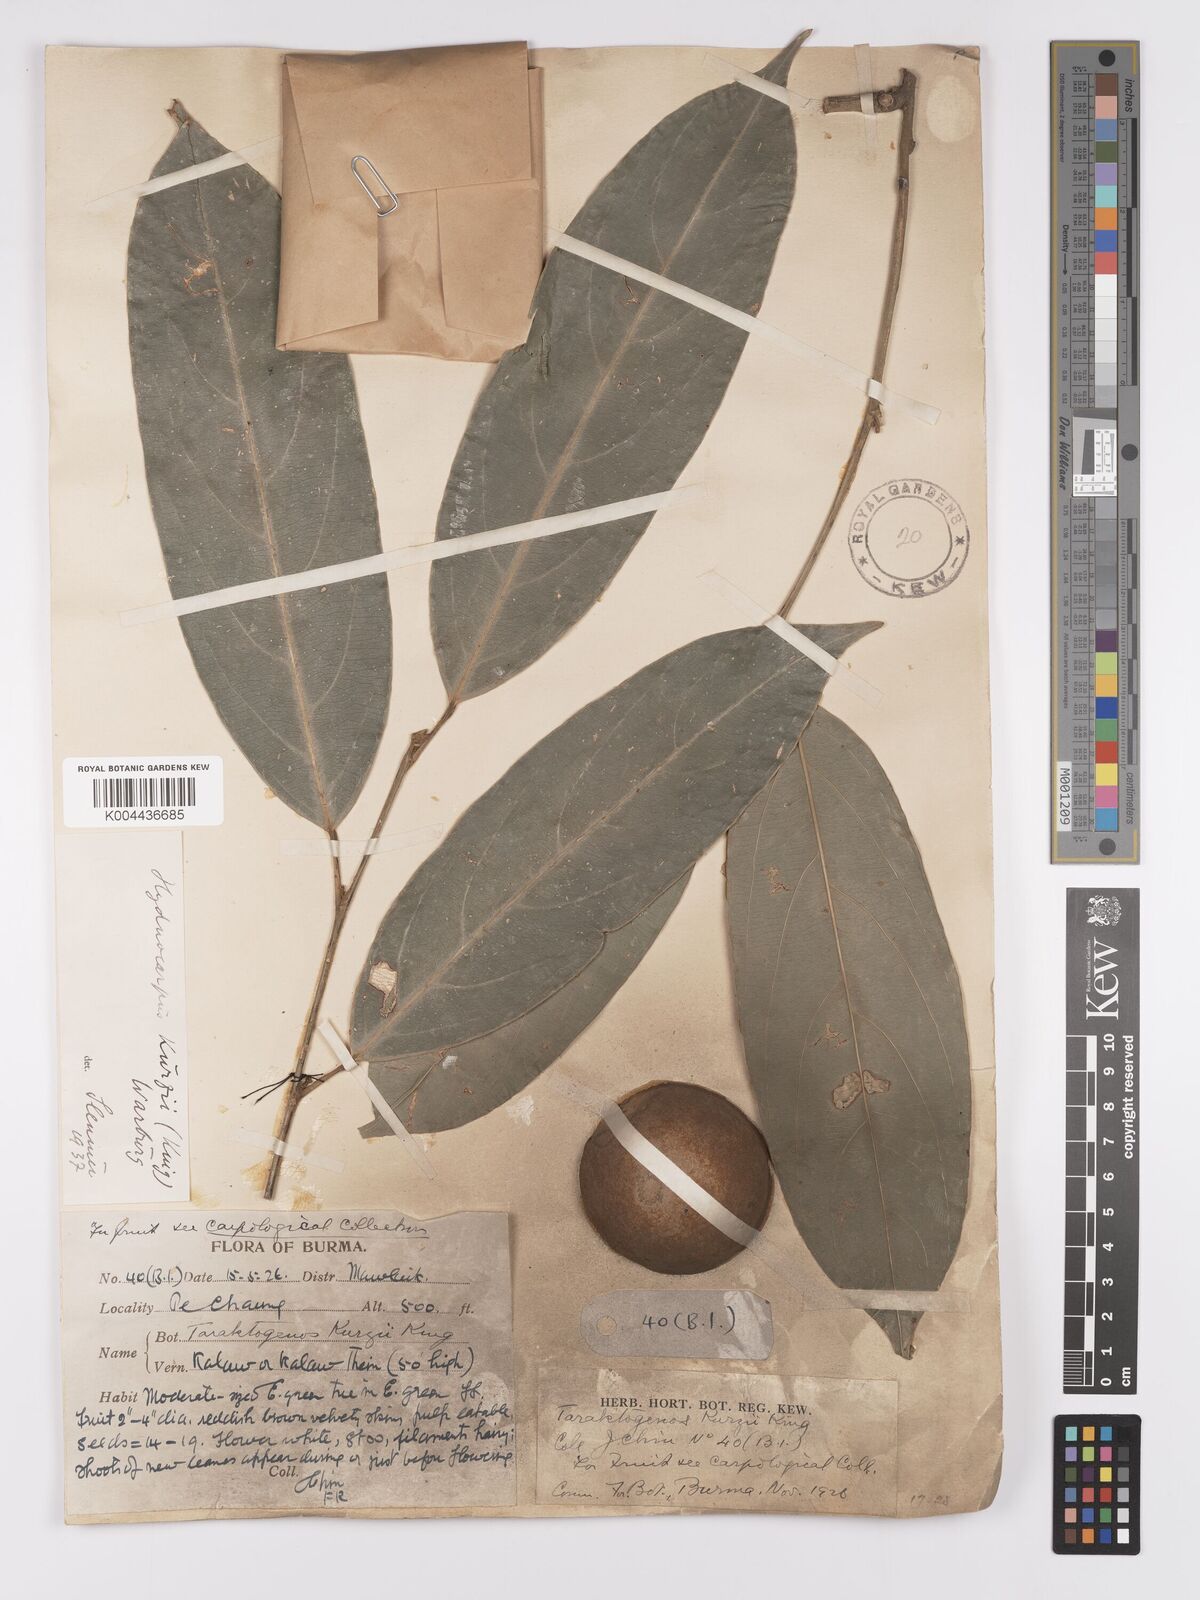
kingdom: Plantae
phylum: Tracheophyta
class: Magnoliopsida
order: Malpighiales
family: Achariaceae
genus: Hydnocarpus
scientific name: Hydnocarpus kurzii
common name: Chaulmoogra
